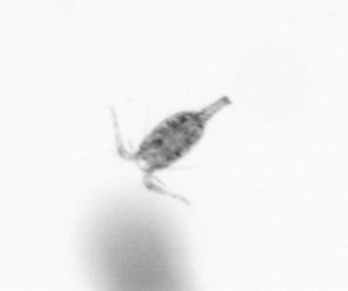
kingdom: Animalia
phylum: Arthropoda
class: Copepoda
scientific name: Copepoda
